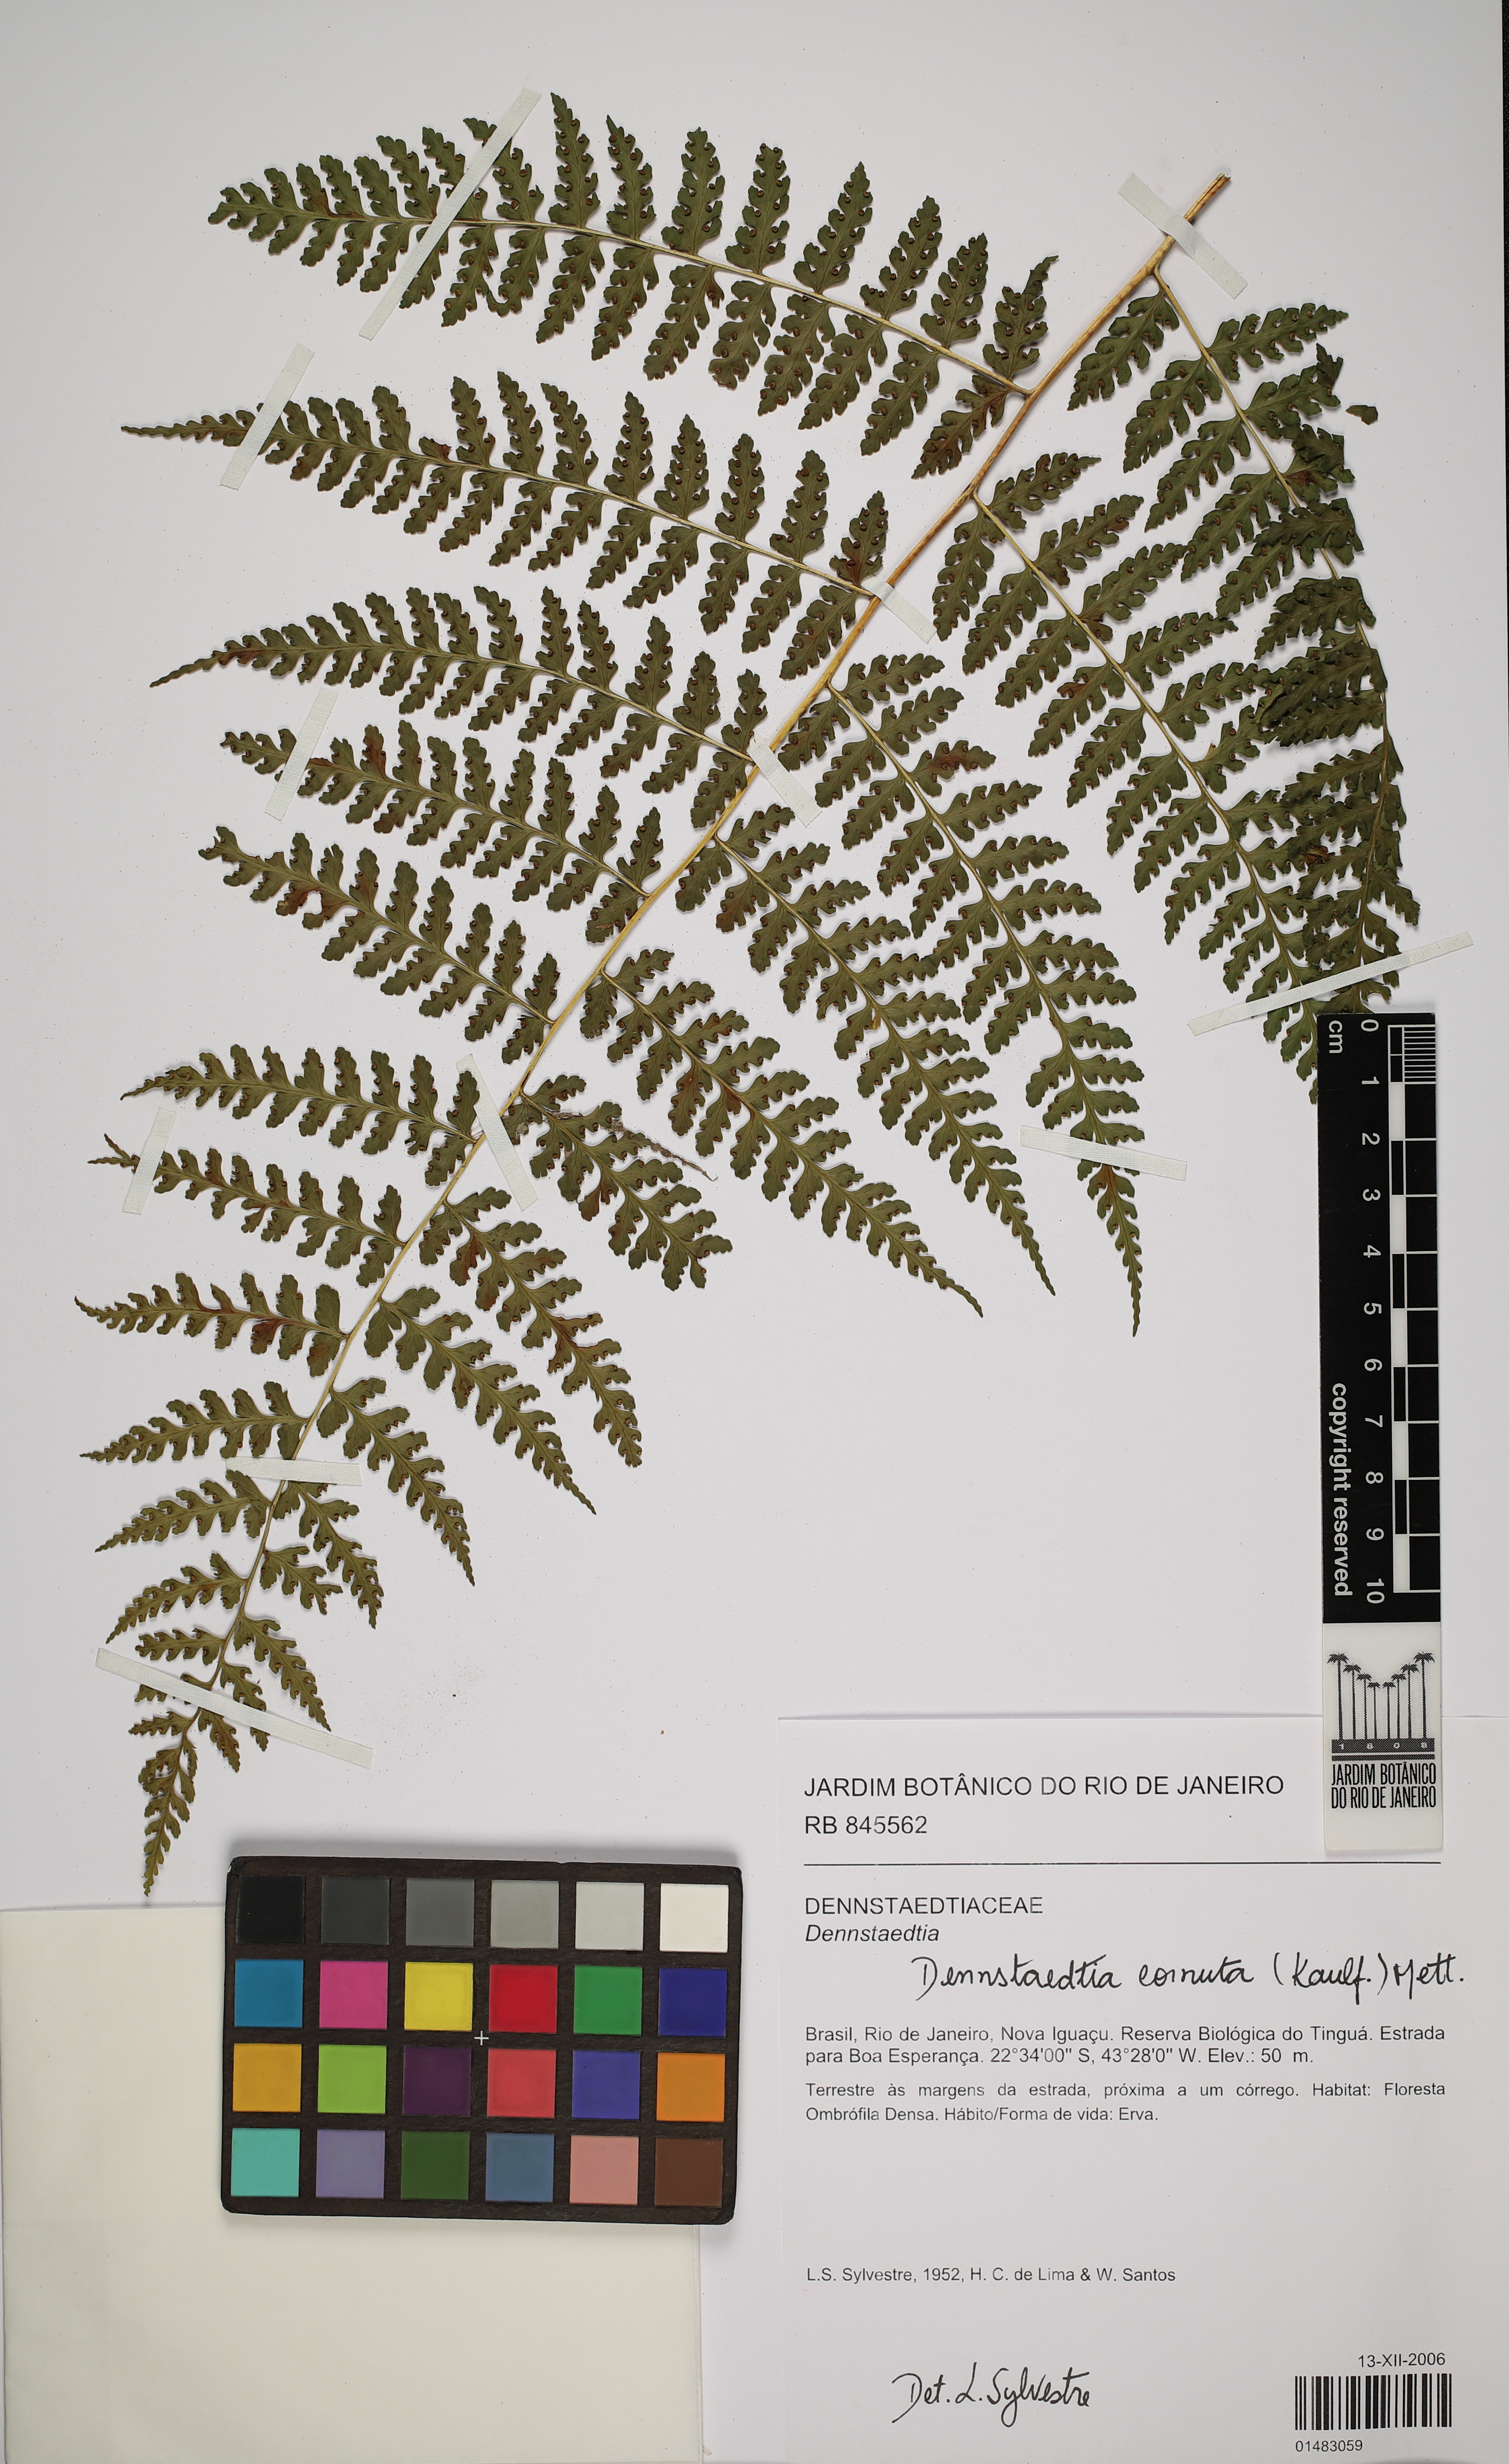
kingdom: Plantae
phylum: Tracheophyta
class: Polypodiopsida
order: Polypodiales
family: Dennstaedtiaceae
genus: Dennstaedtia
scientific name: Dennstaedtia cornuta
